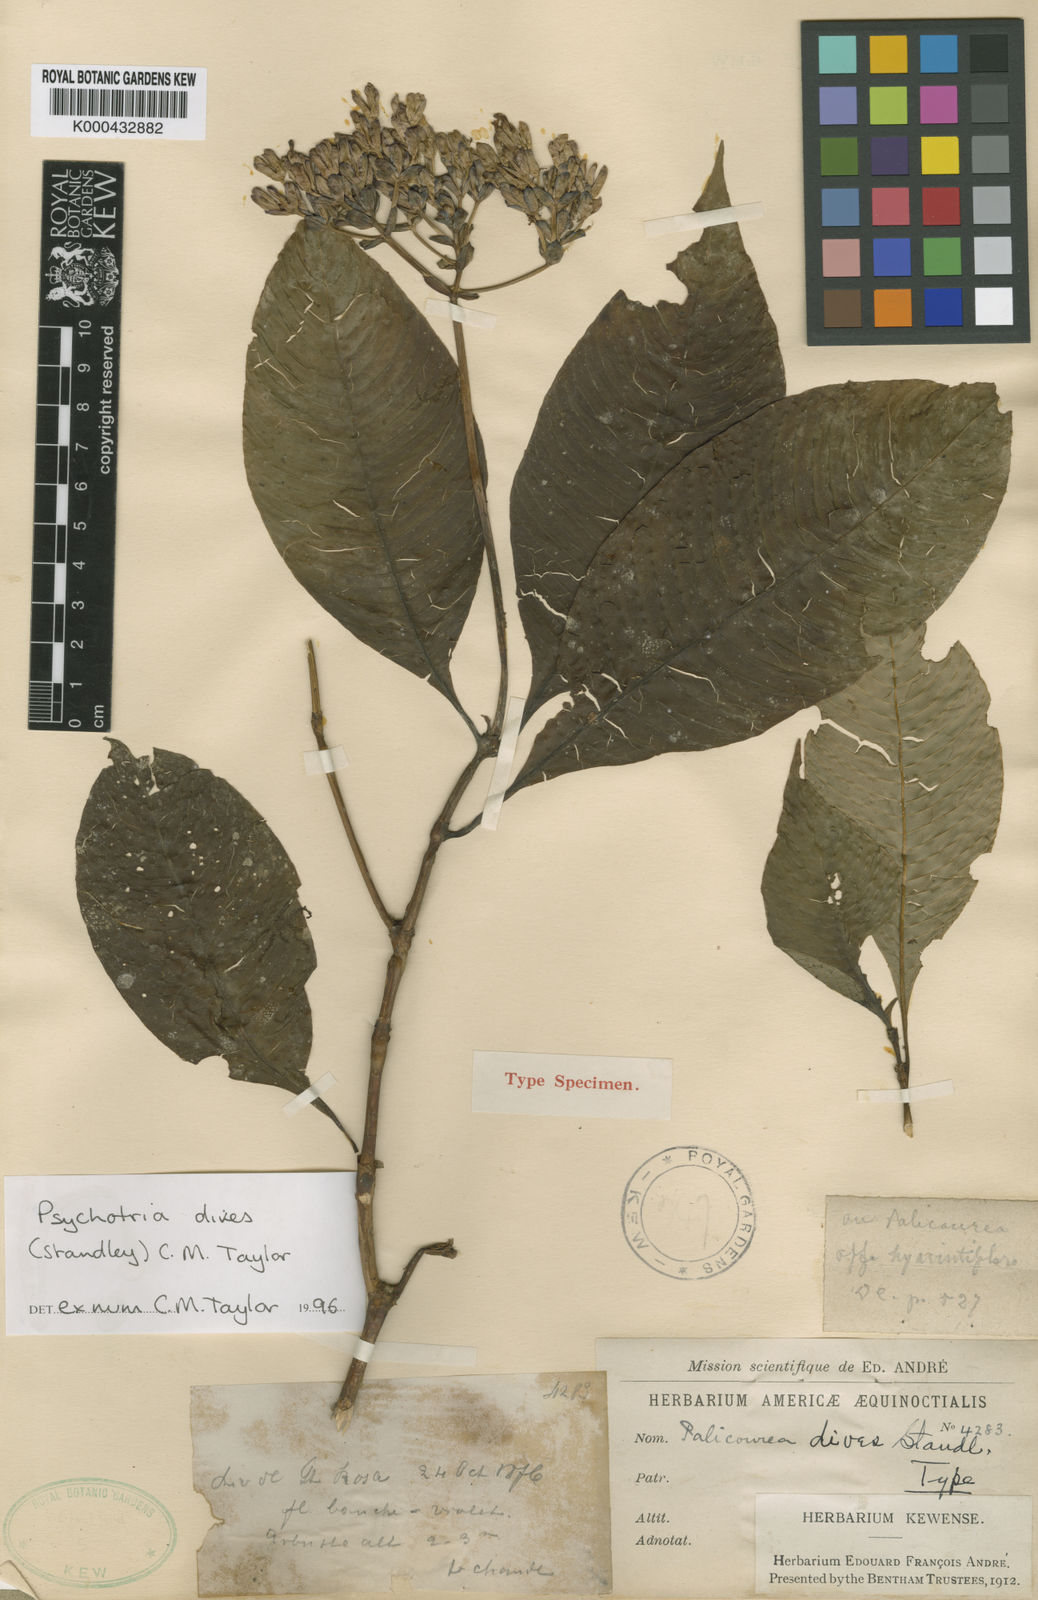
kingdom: Plantae
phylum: Tracheophyta
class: Magnoliopsida
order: Gentianales
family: Rubiaceae
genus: Palicourea
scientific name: Palicourea dives
